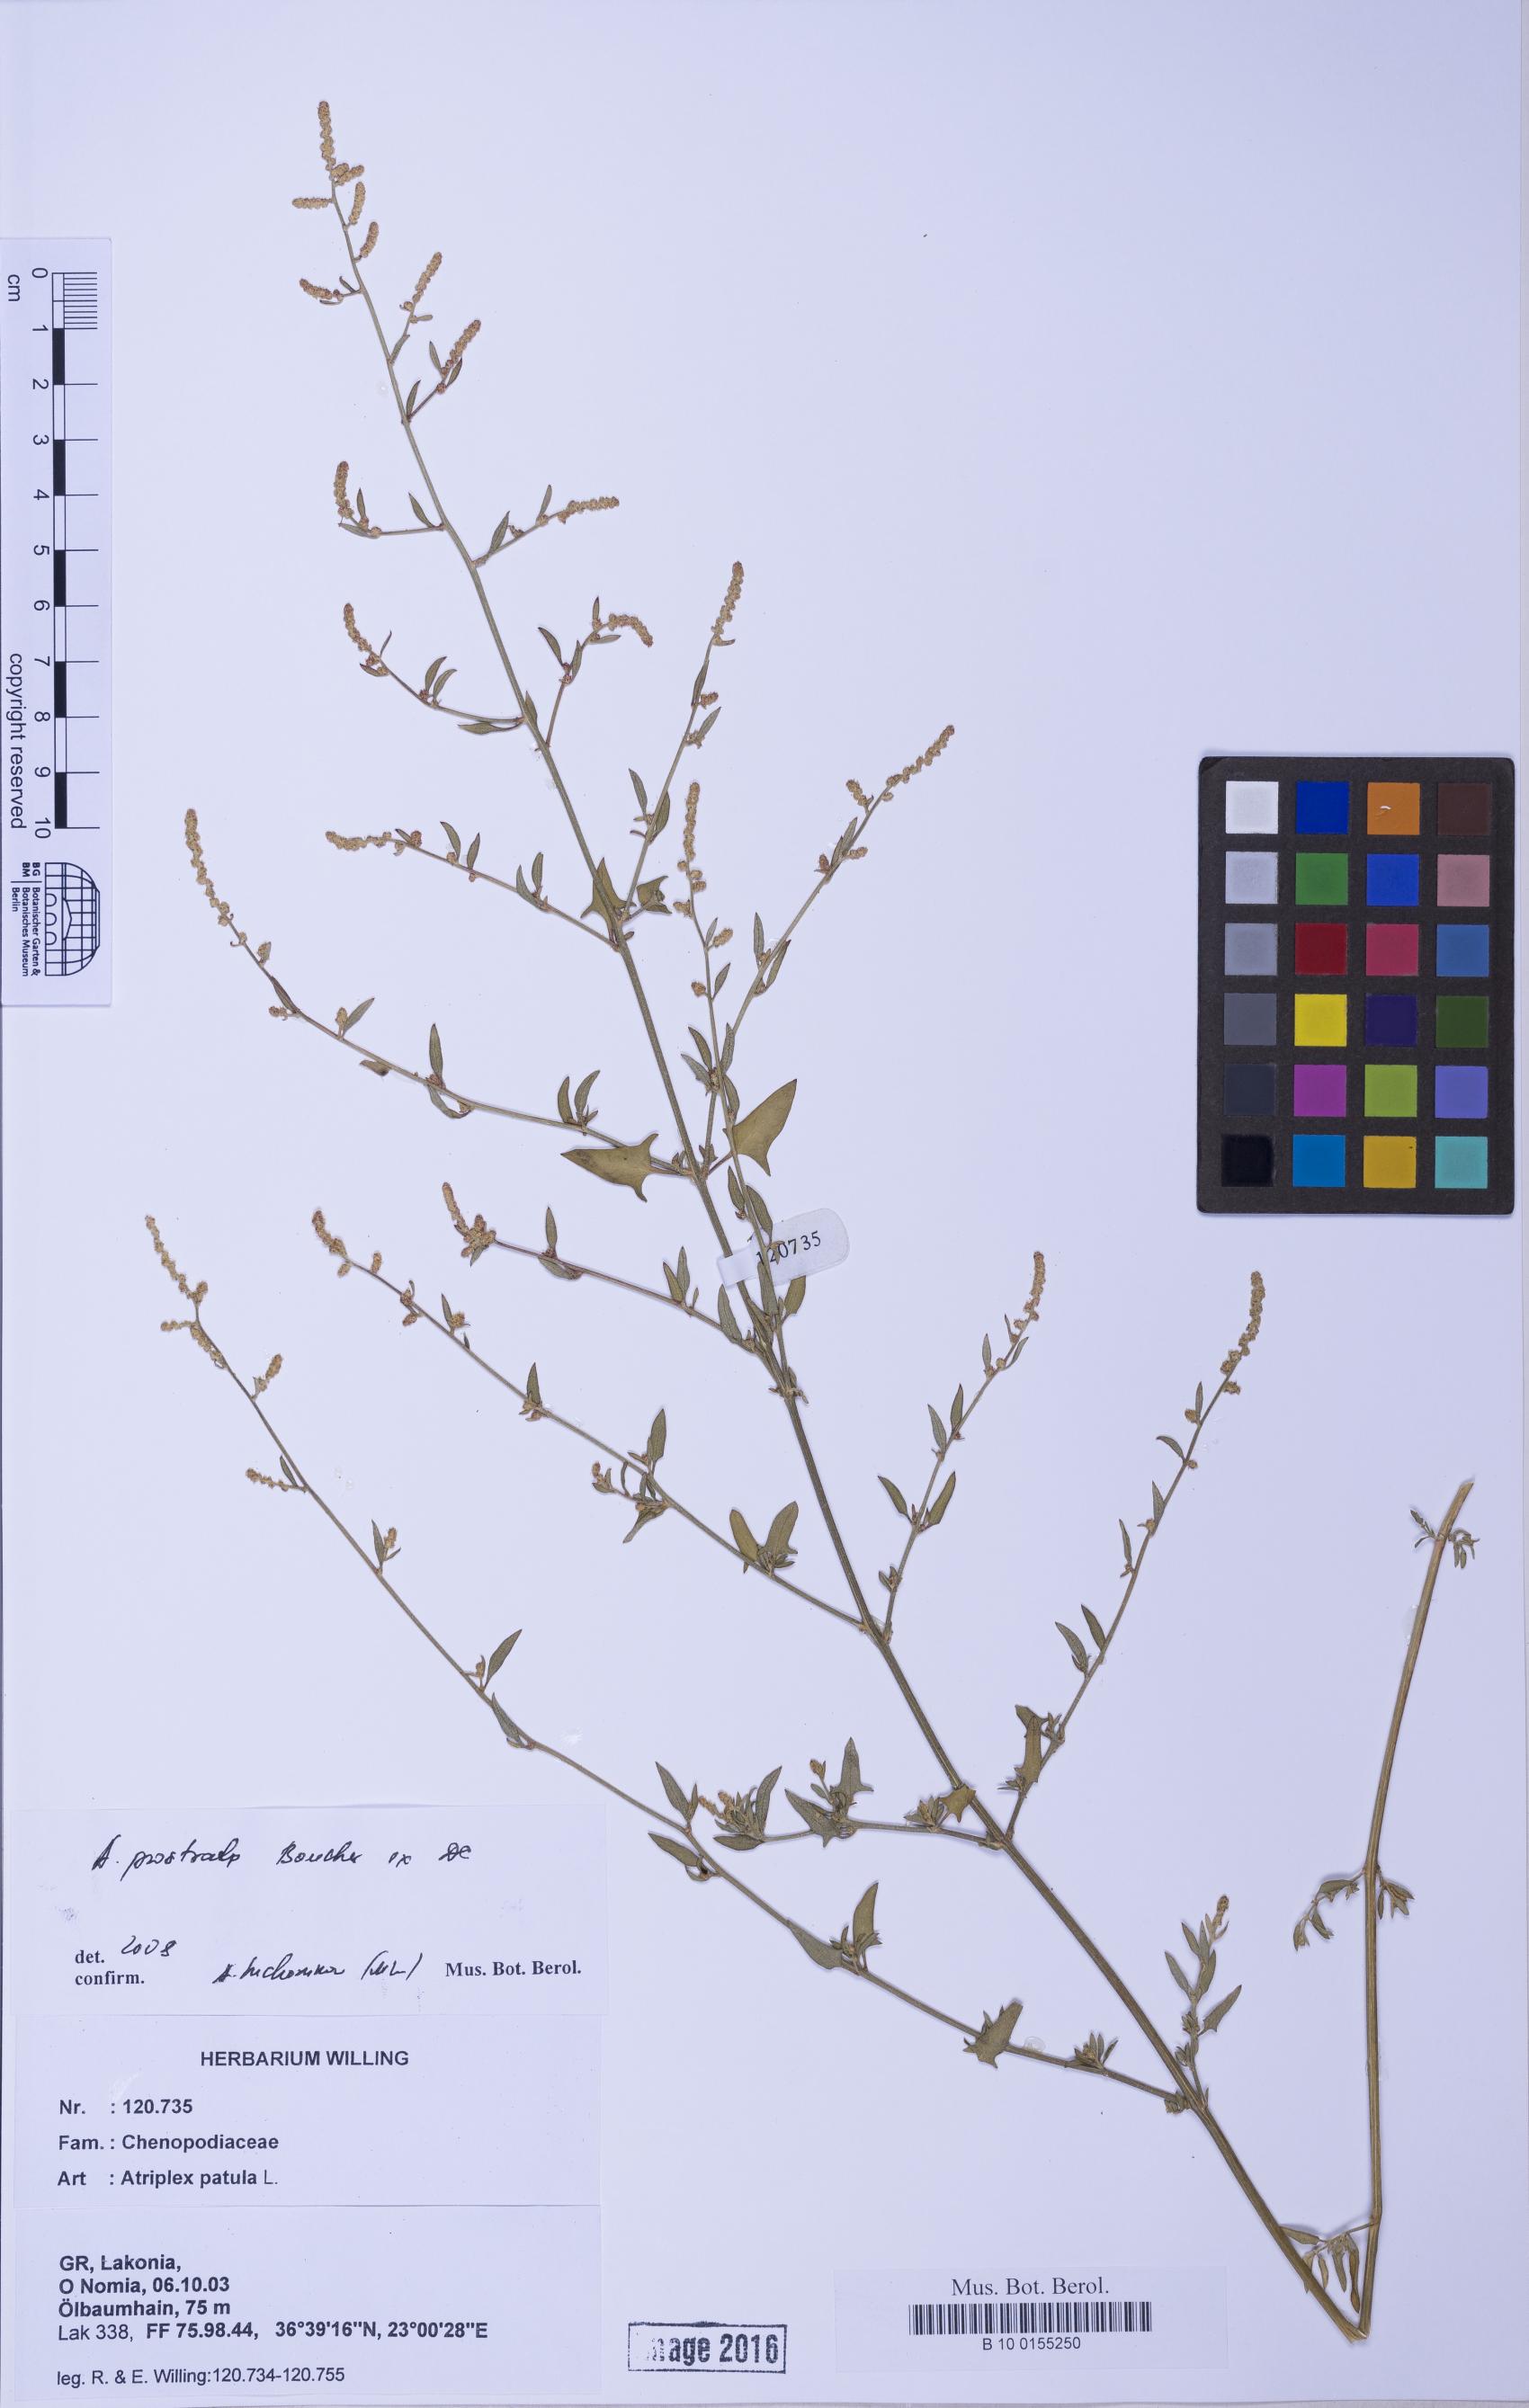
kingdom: Plantae
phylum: Tracheophyta
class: Magnoliopsida
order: Caryophyllales
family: Amaranthaceae
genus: Atriplex
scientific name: Atriplex prostrata
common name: Spear-leaved orache
